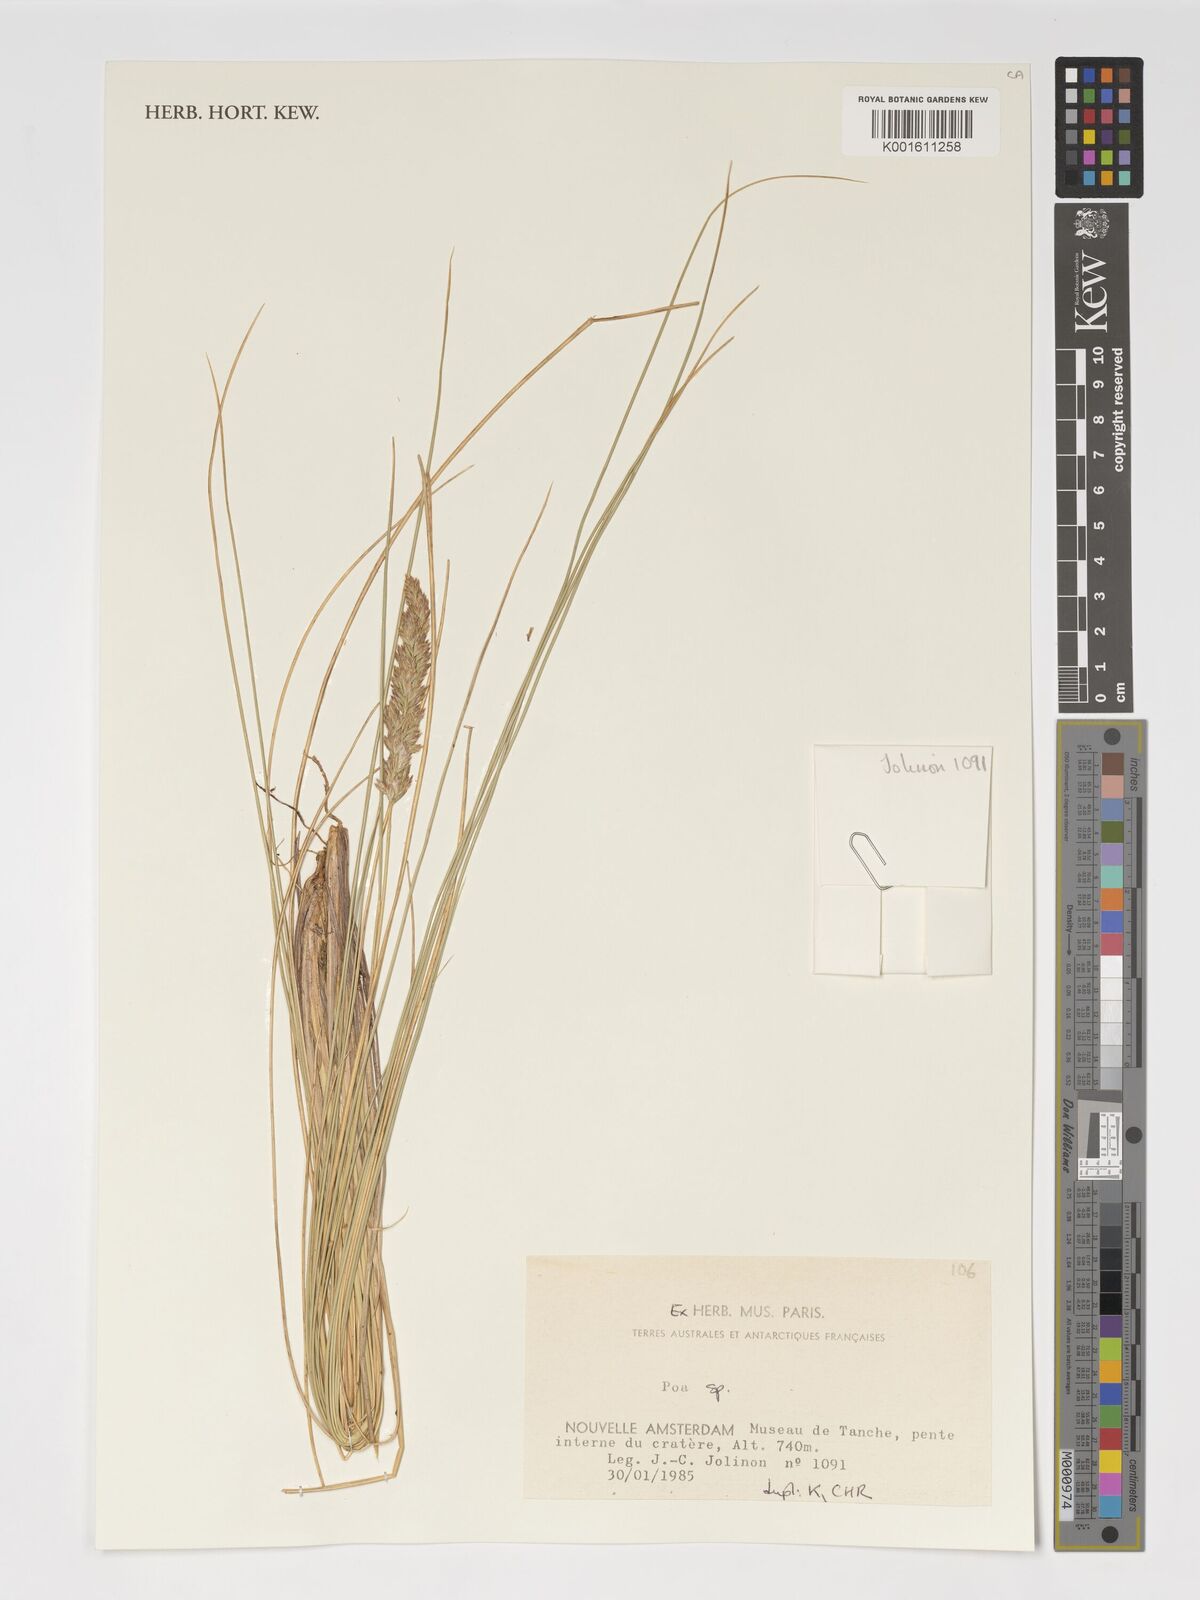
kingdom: Plantae
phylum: Tracheophyta
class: Liliopsida
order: Poales
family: Poaceae
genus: Poa
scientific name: Poa
